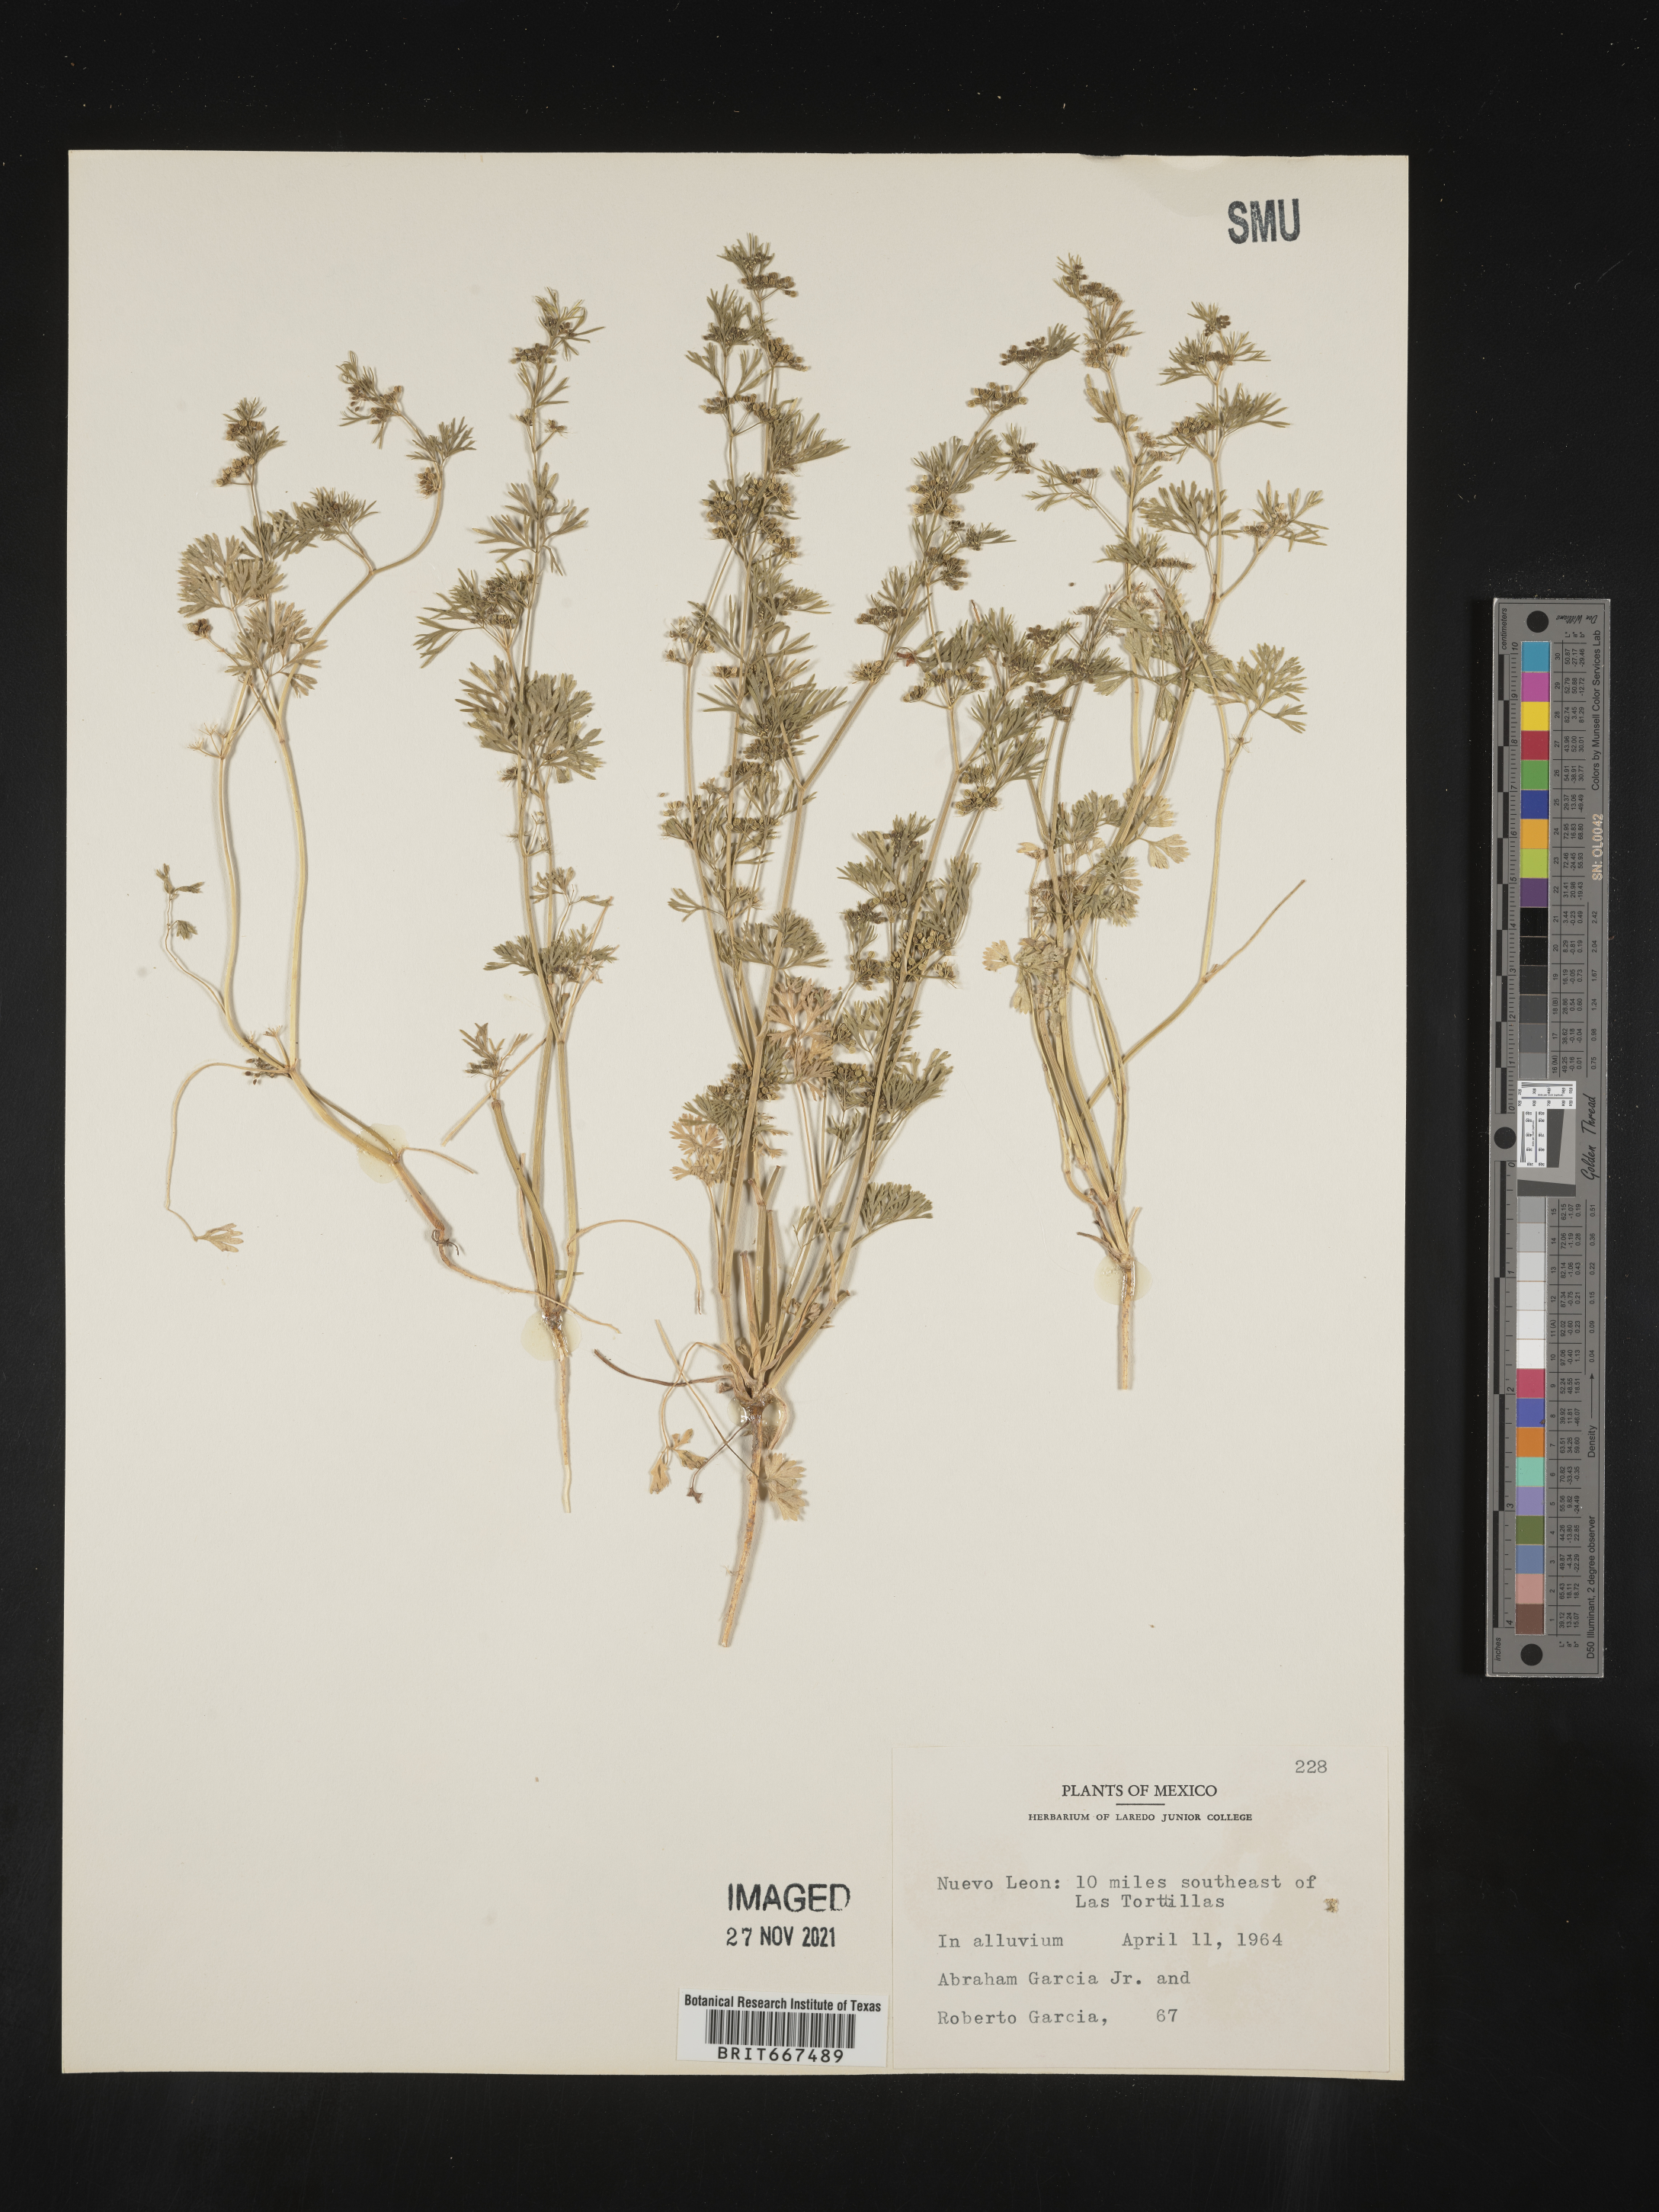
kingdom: Plantae
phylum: Tracheophyta
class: Magnoliopsida
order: Apiales
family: Apiaceae
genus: Apium
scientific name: Apium
